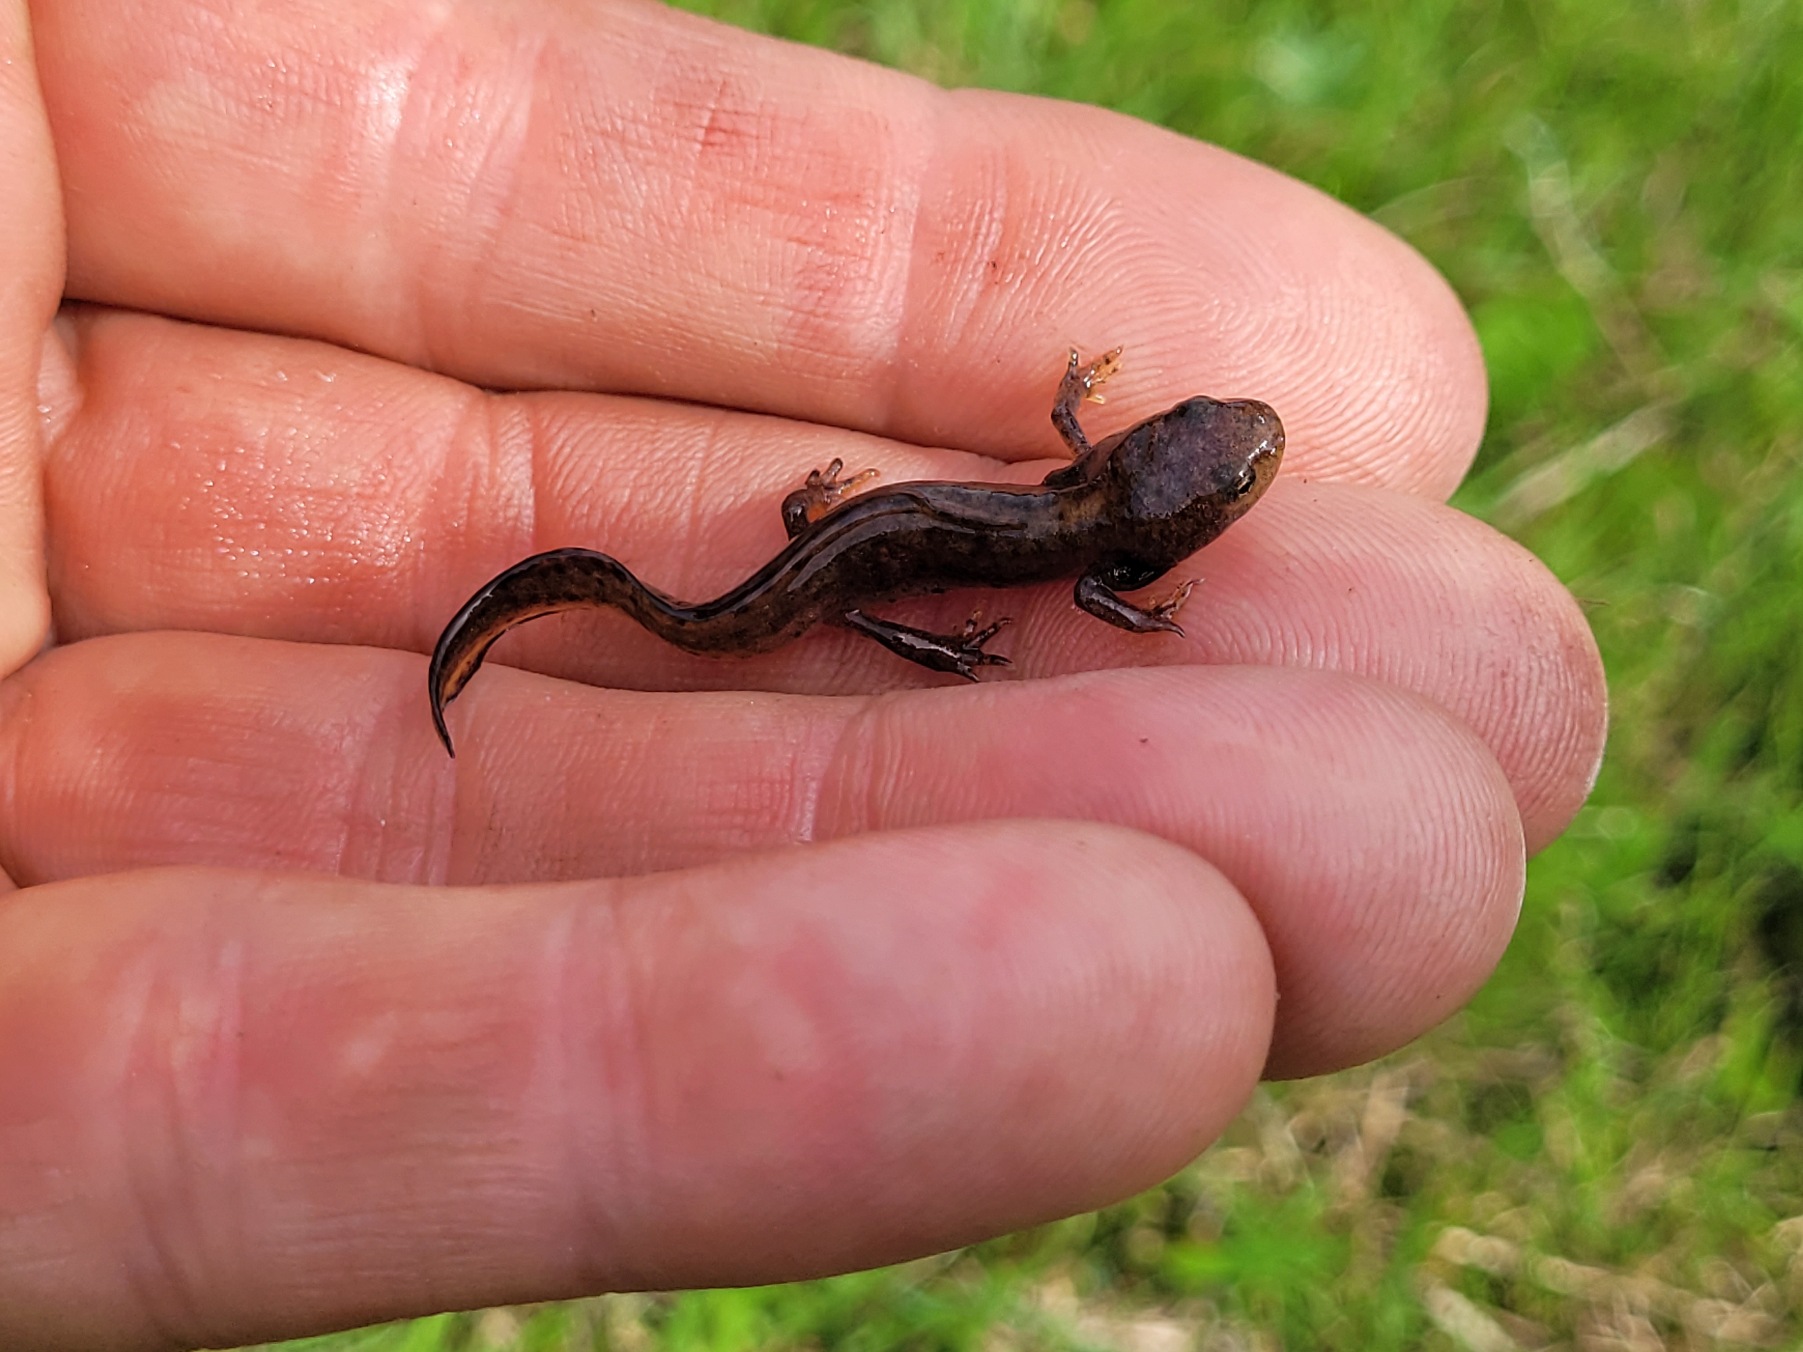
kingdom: Animalia
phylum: Chordata
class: Amphibia
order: Caudata
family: Salamandridae
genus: Ichthyosaura
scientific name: Ichthyosaura alpestris
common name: Bjergsalamander
